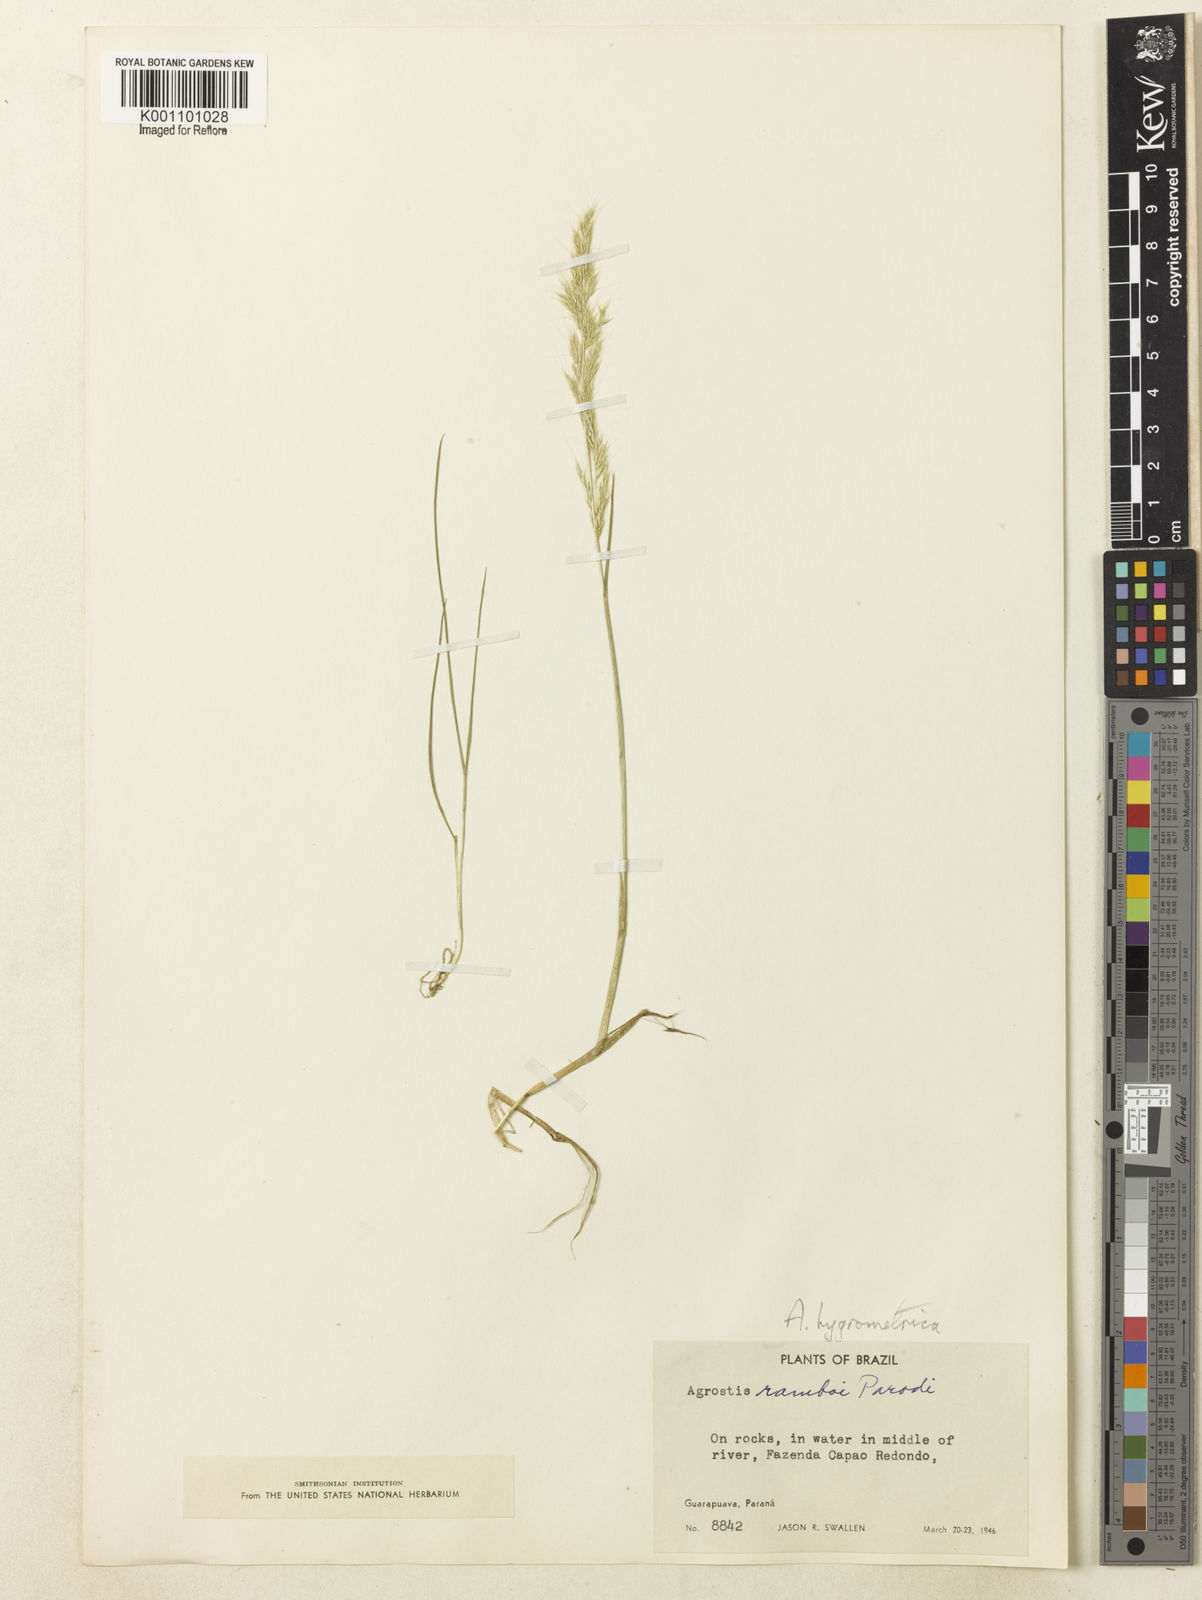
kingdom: Plantae
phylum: Tracheophyta
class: Liliopsida
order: Poales
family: Poaceae
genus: Agrostis
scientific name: Agrostis hygrometrica
